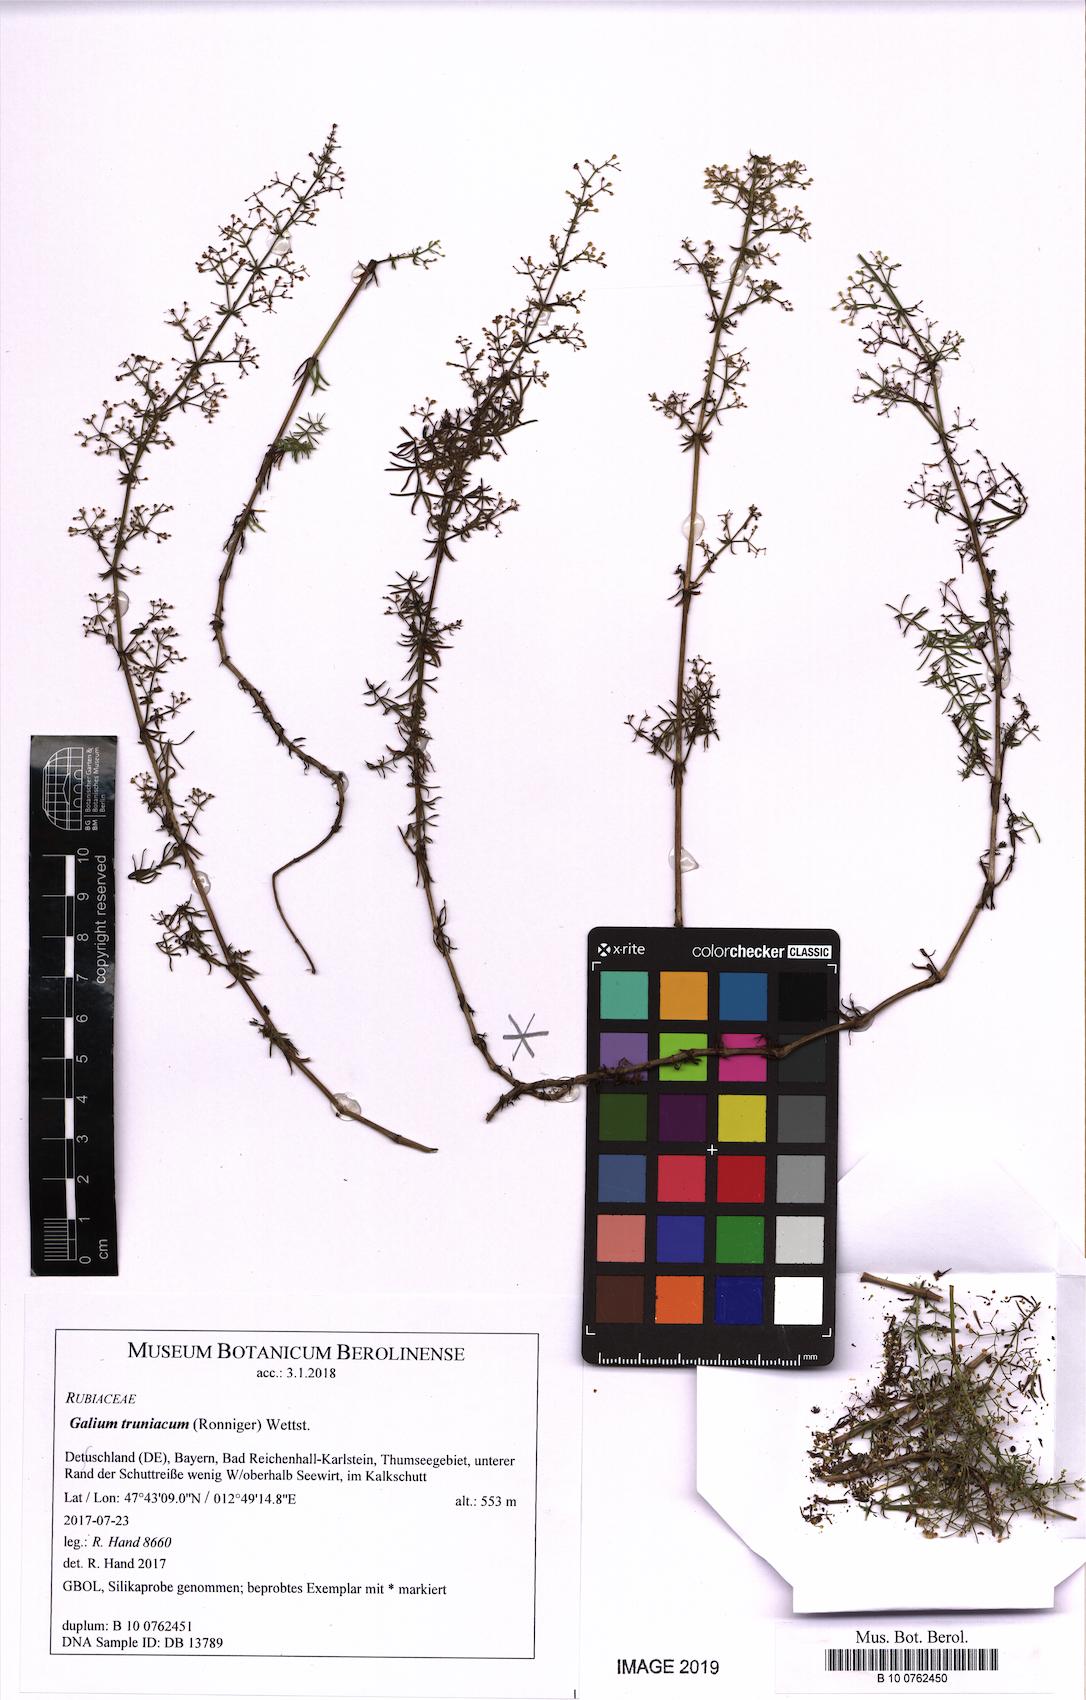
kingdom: Plantae
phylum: Tracheophyta
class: Magnoliopsida
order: Gentianales
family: Rubiaceae
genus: Galium
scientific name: Galium truniacum
